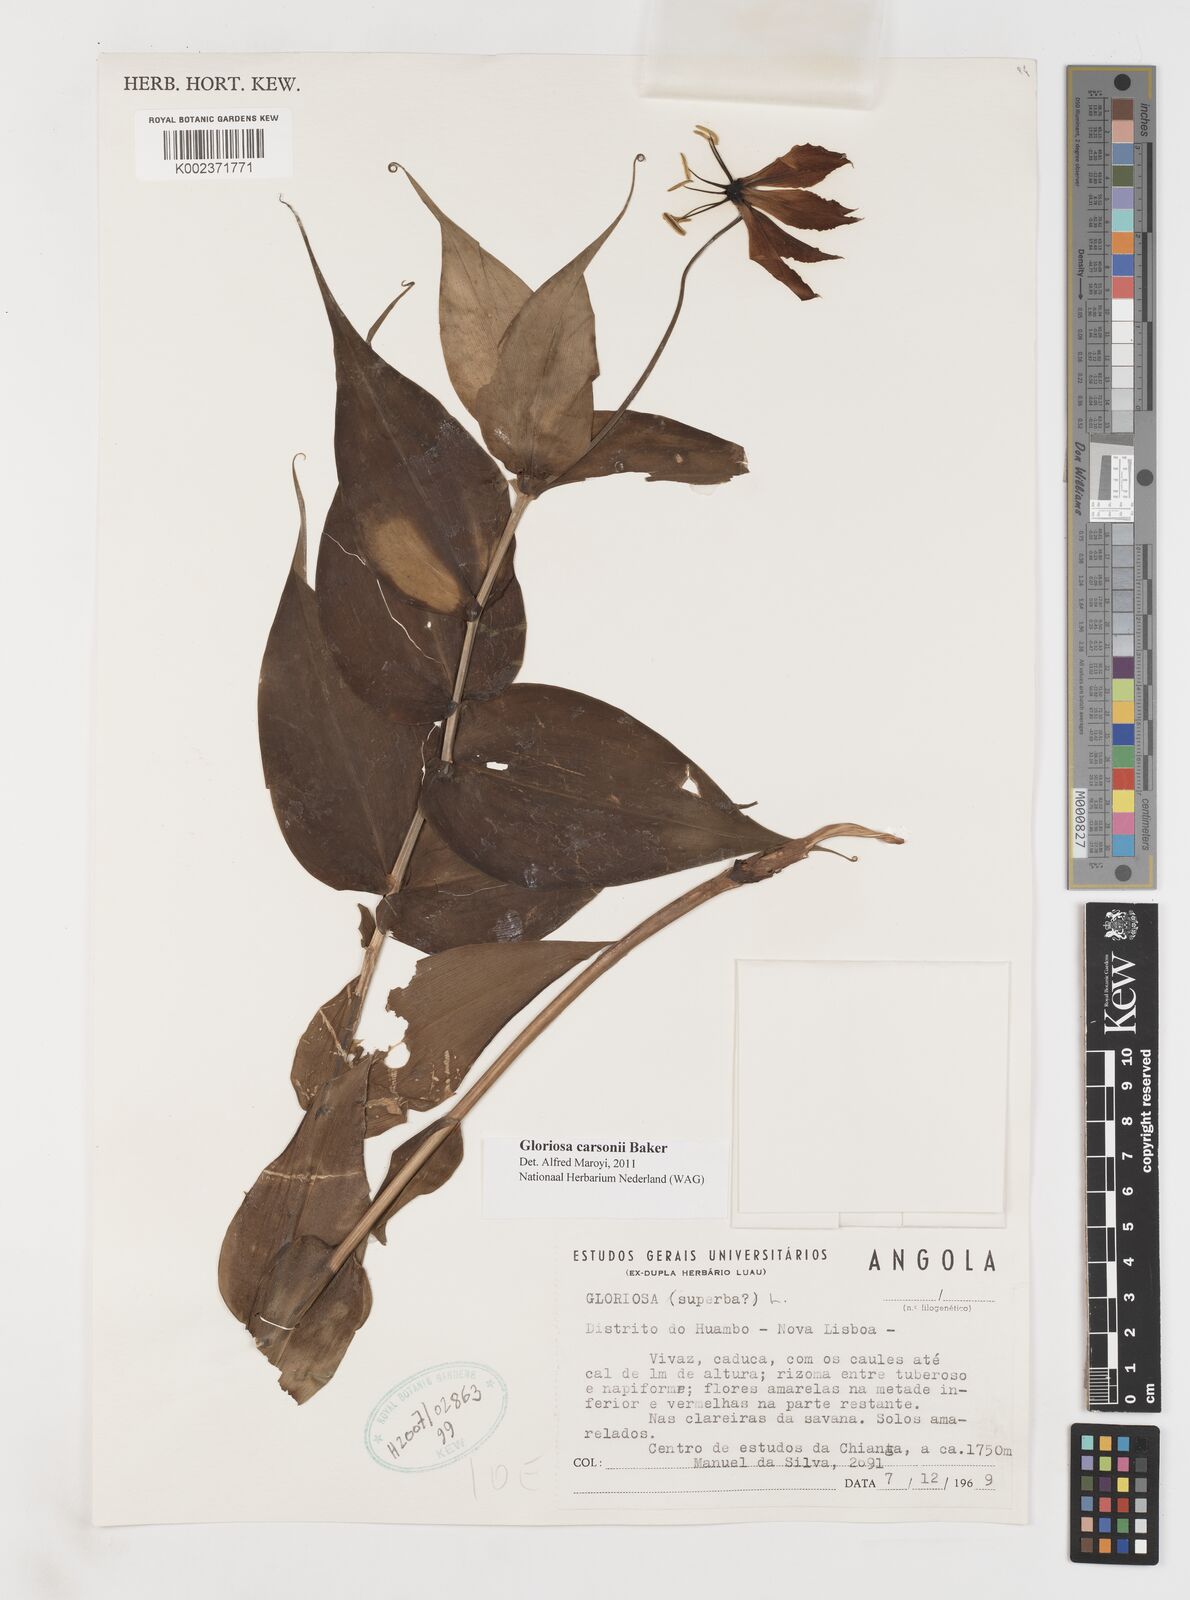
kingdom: Plantae
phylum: Tracheophyta
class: Liliopsida
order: Liliales
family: Colchicaceae
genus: Gloriosa
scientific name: Gloriosa carsonii
